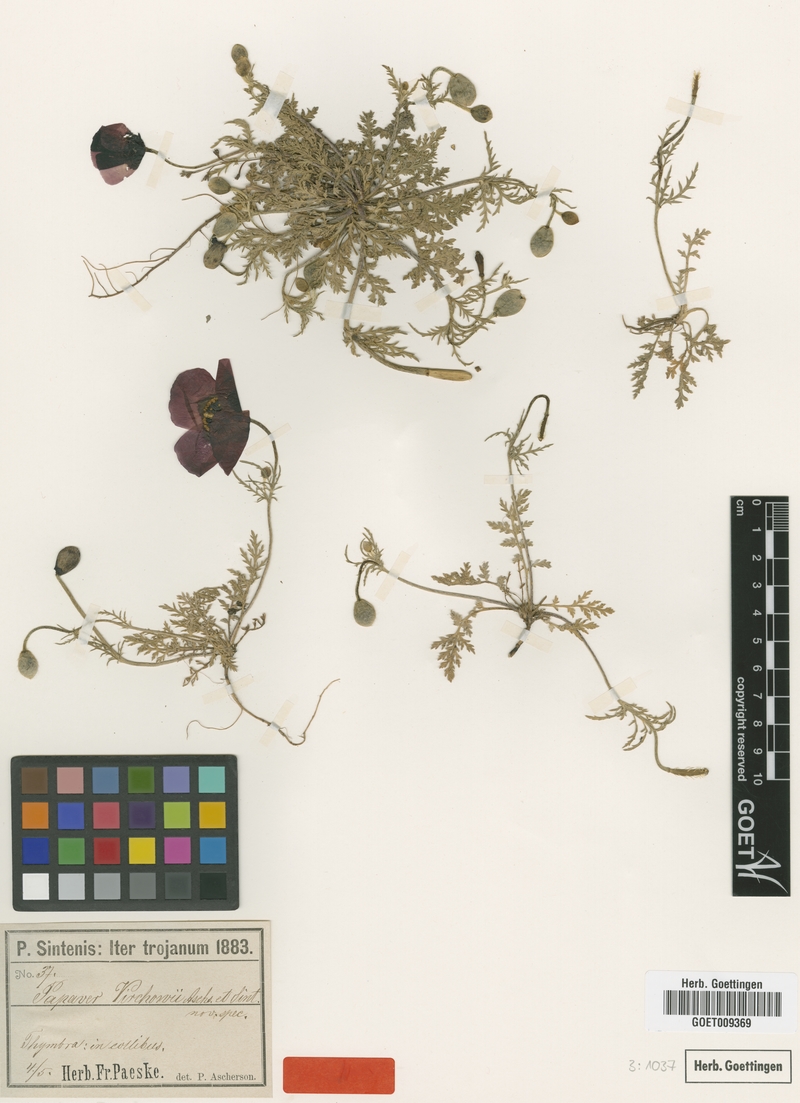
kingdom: Plantae
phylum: Tracheophyta
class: Magnoliopsida
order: Ranunculales
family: Papaveraceae
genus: Roemeria
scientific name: Roemeria virchowii
